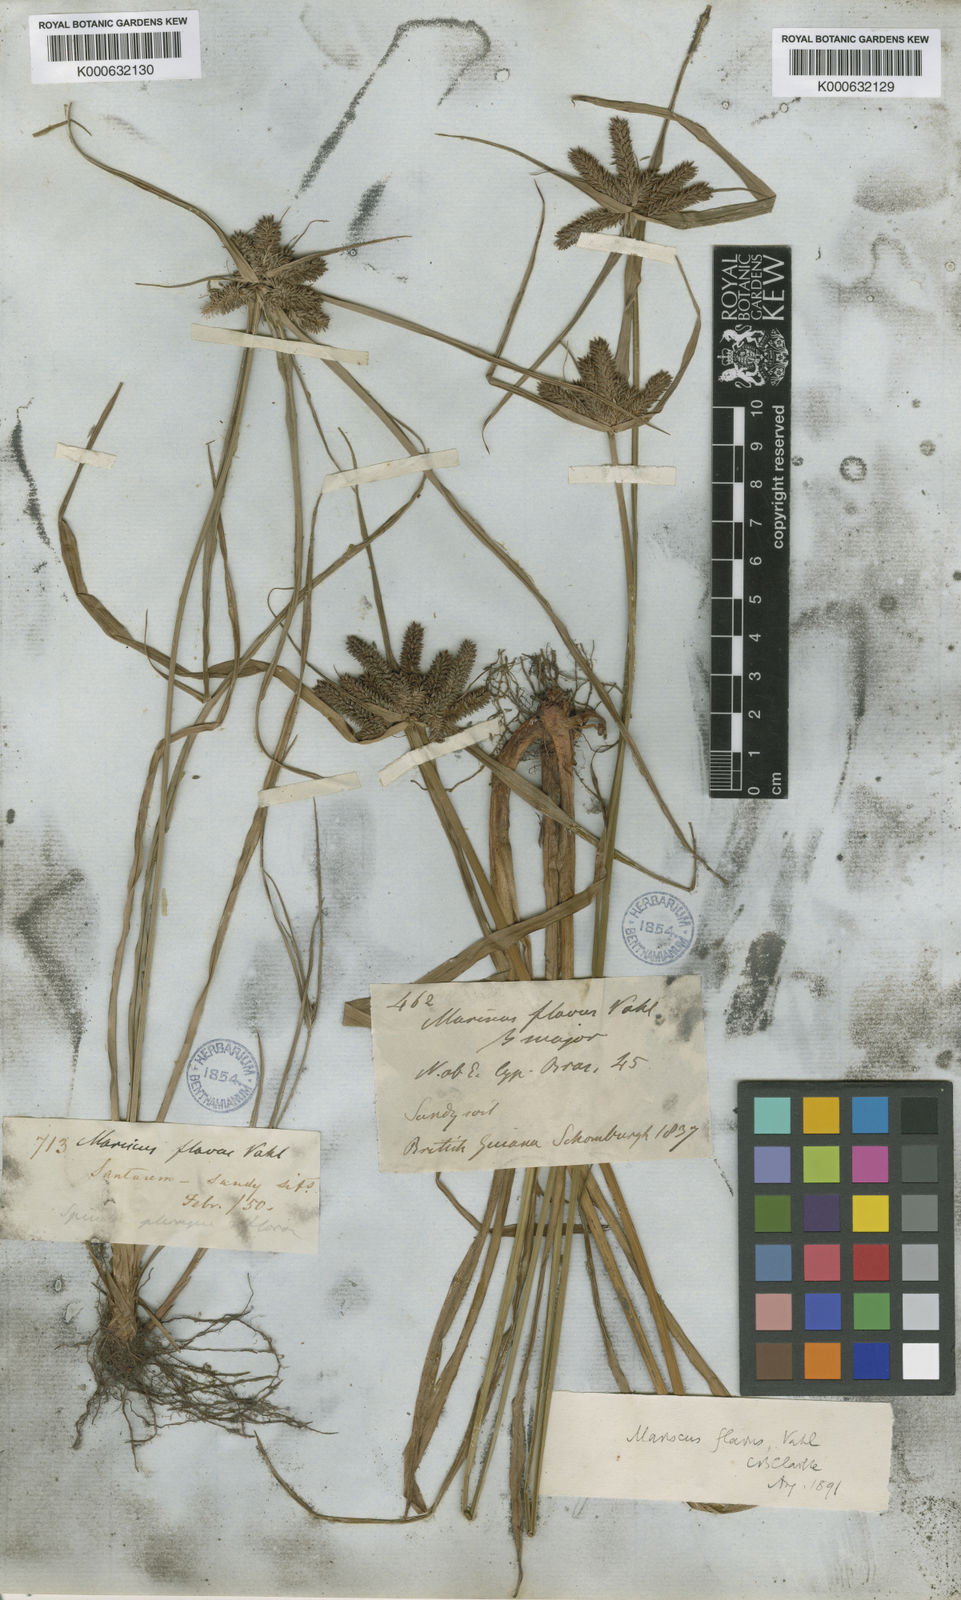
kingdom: Plantae
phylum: Tracheophyta
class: Liliopsida
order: Poales
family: Cyperaceae
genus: Cyperus
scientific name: Cyperus aggregatus
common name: Inflatedscale flatsedge
